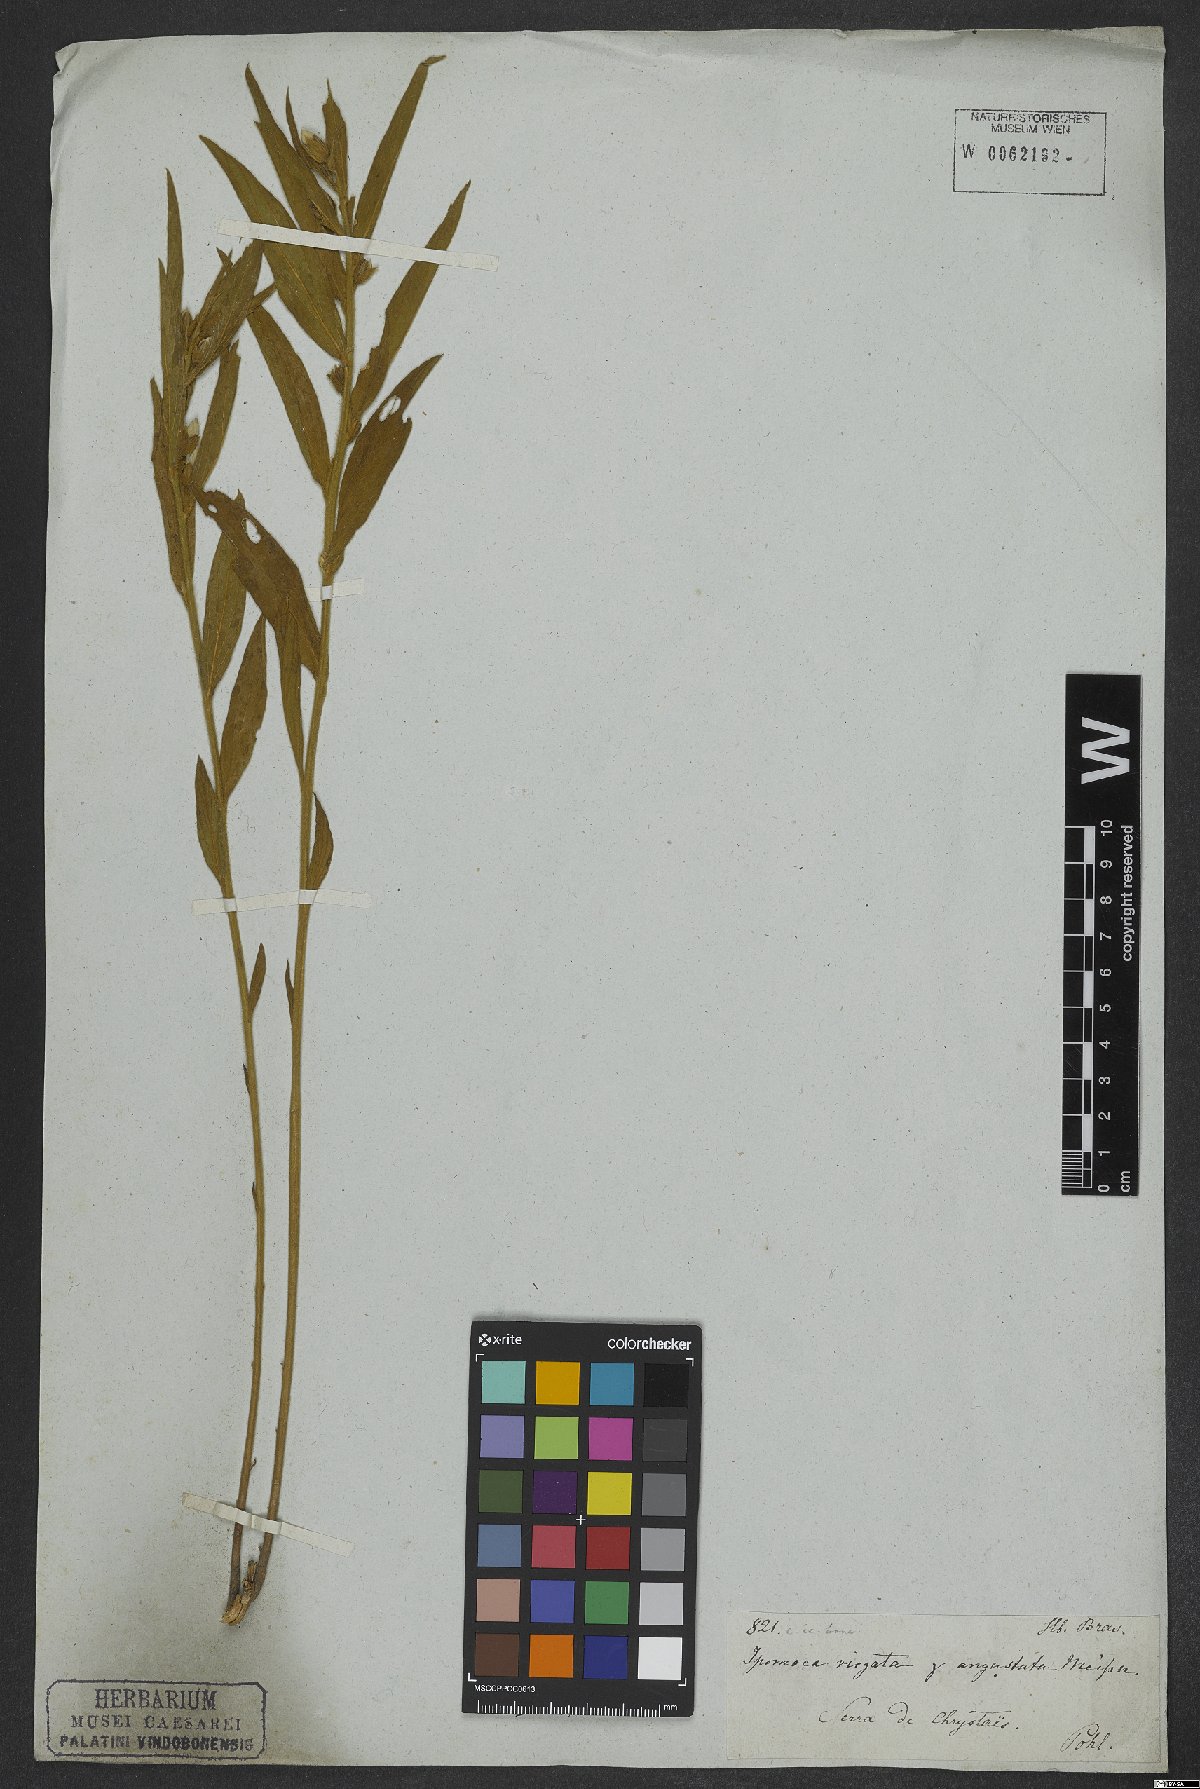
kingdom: Plantae
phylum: Tracheophyta
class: Magnoliopsida
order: Solanales
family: Convolvulaceae
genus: Ipomoea
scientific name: Ipomoea virgata
